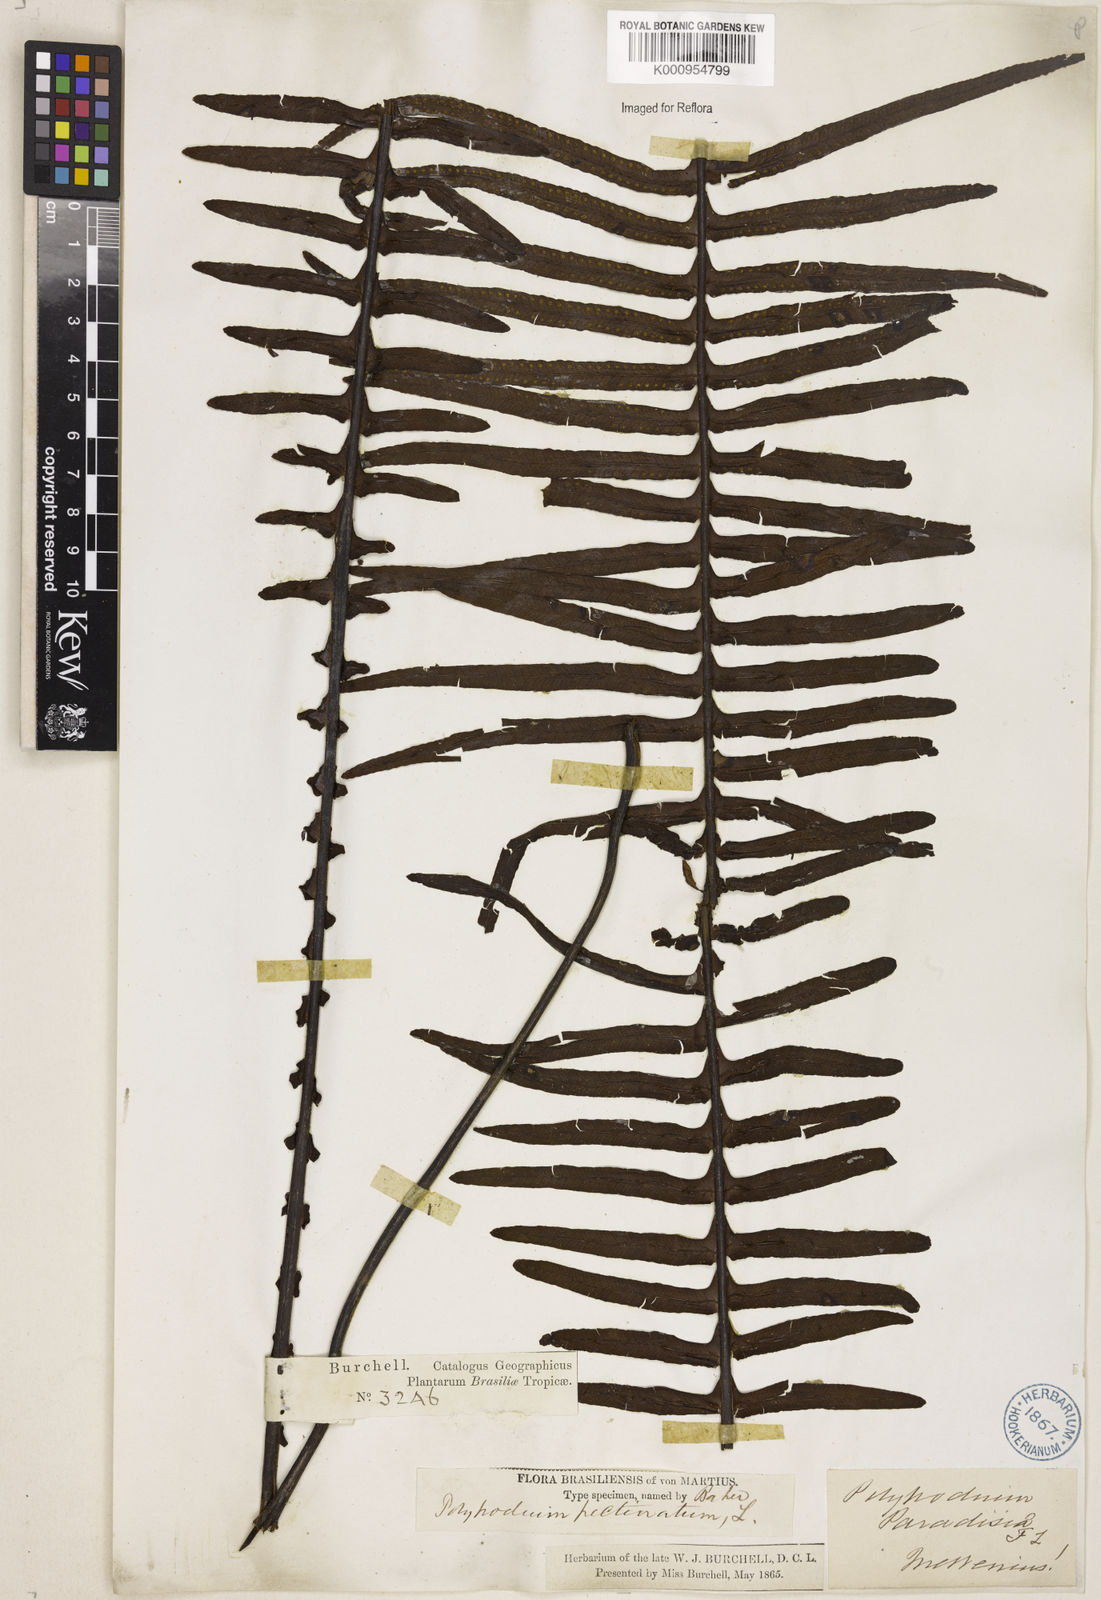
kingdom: Plantae
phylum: Tracheophyta
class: Polypodiopsida
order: Polypodiales
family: Polypodiaceae
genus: Pecluma
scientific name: Pecluma
